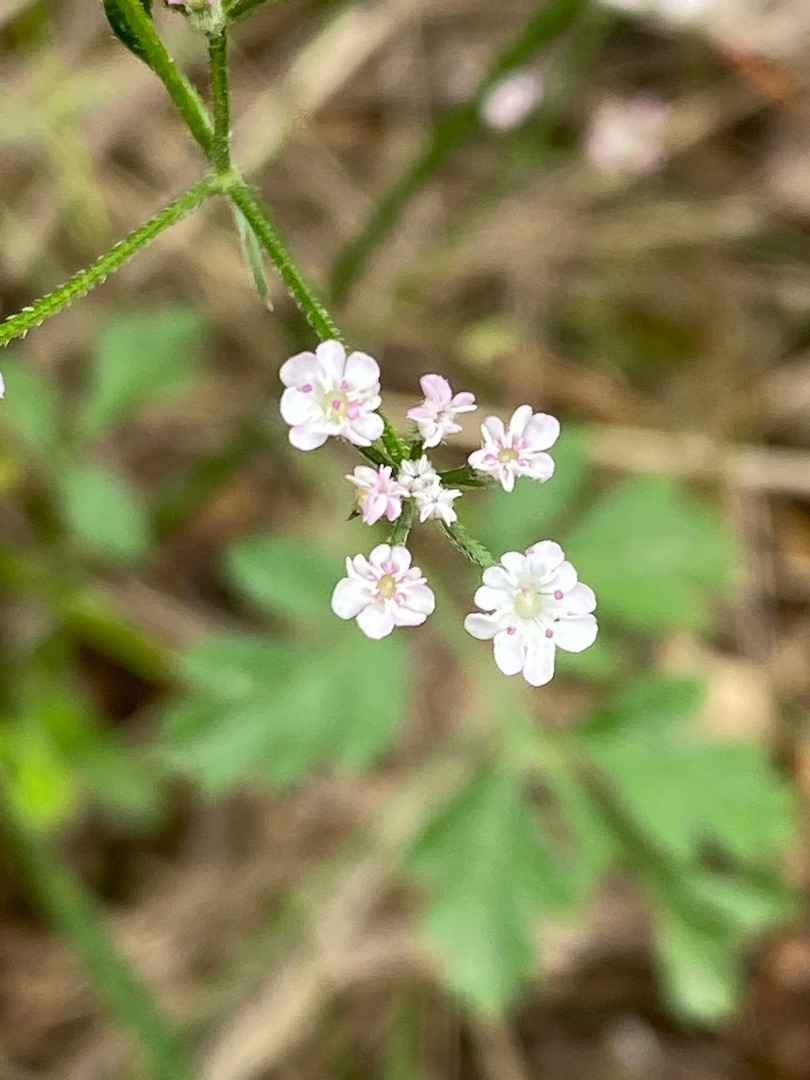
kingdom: Plantae
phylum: Tracheophyta
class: Magnoliopsida
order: Apiales
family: Apiaceae
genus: Torilis
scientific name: Torilis japonica
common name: Hvas randfrø
